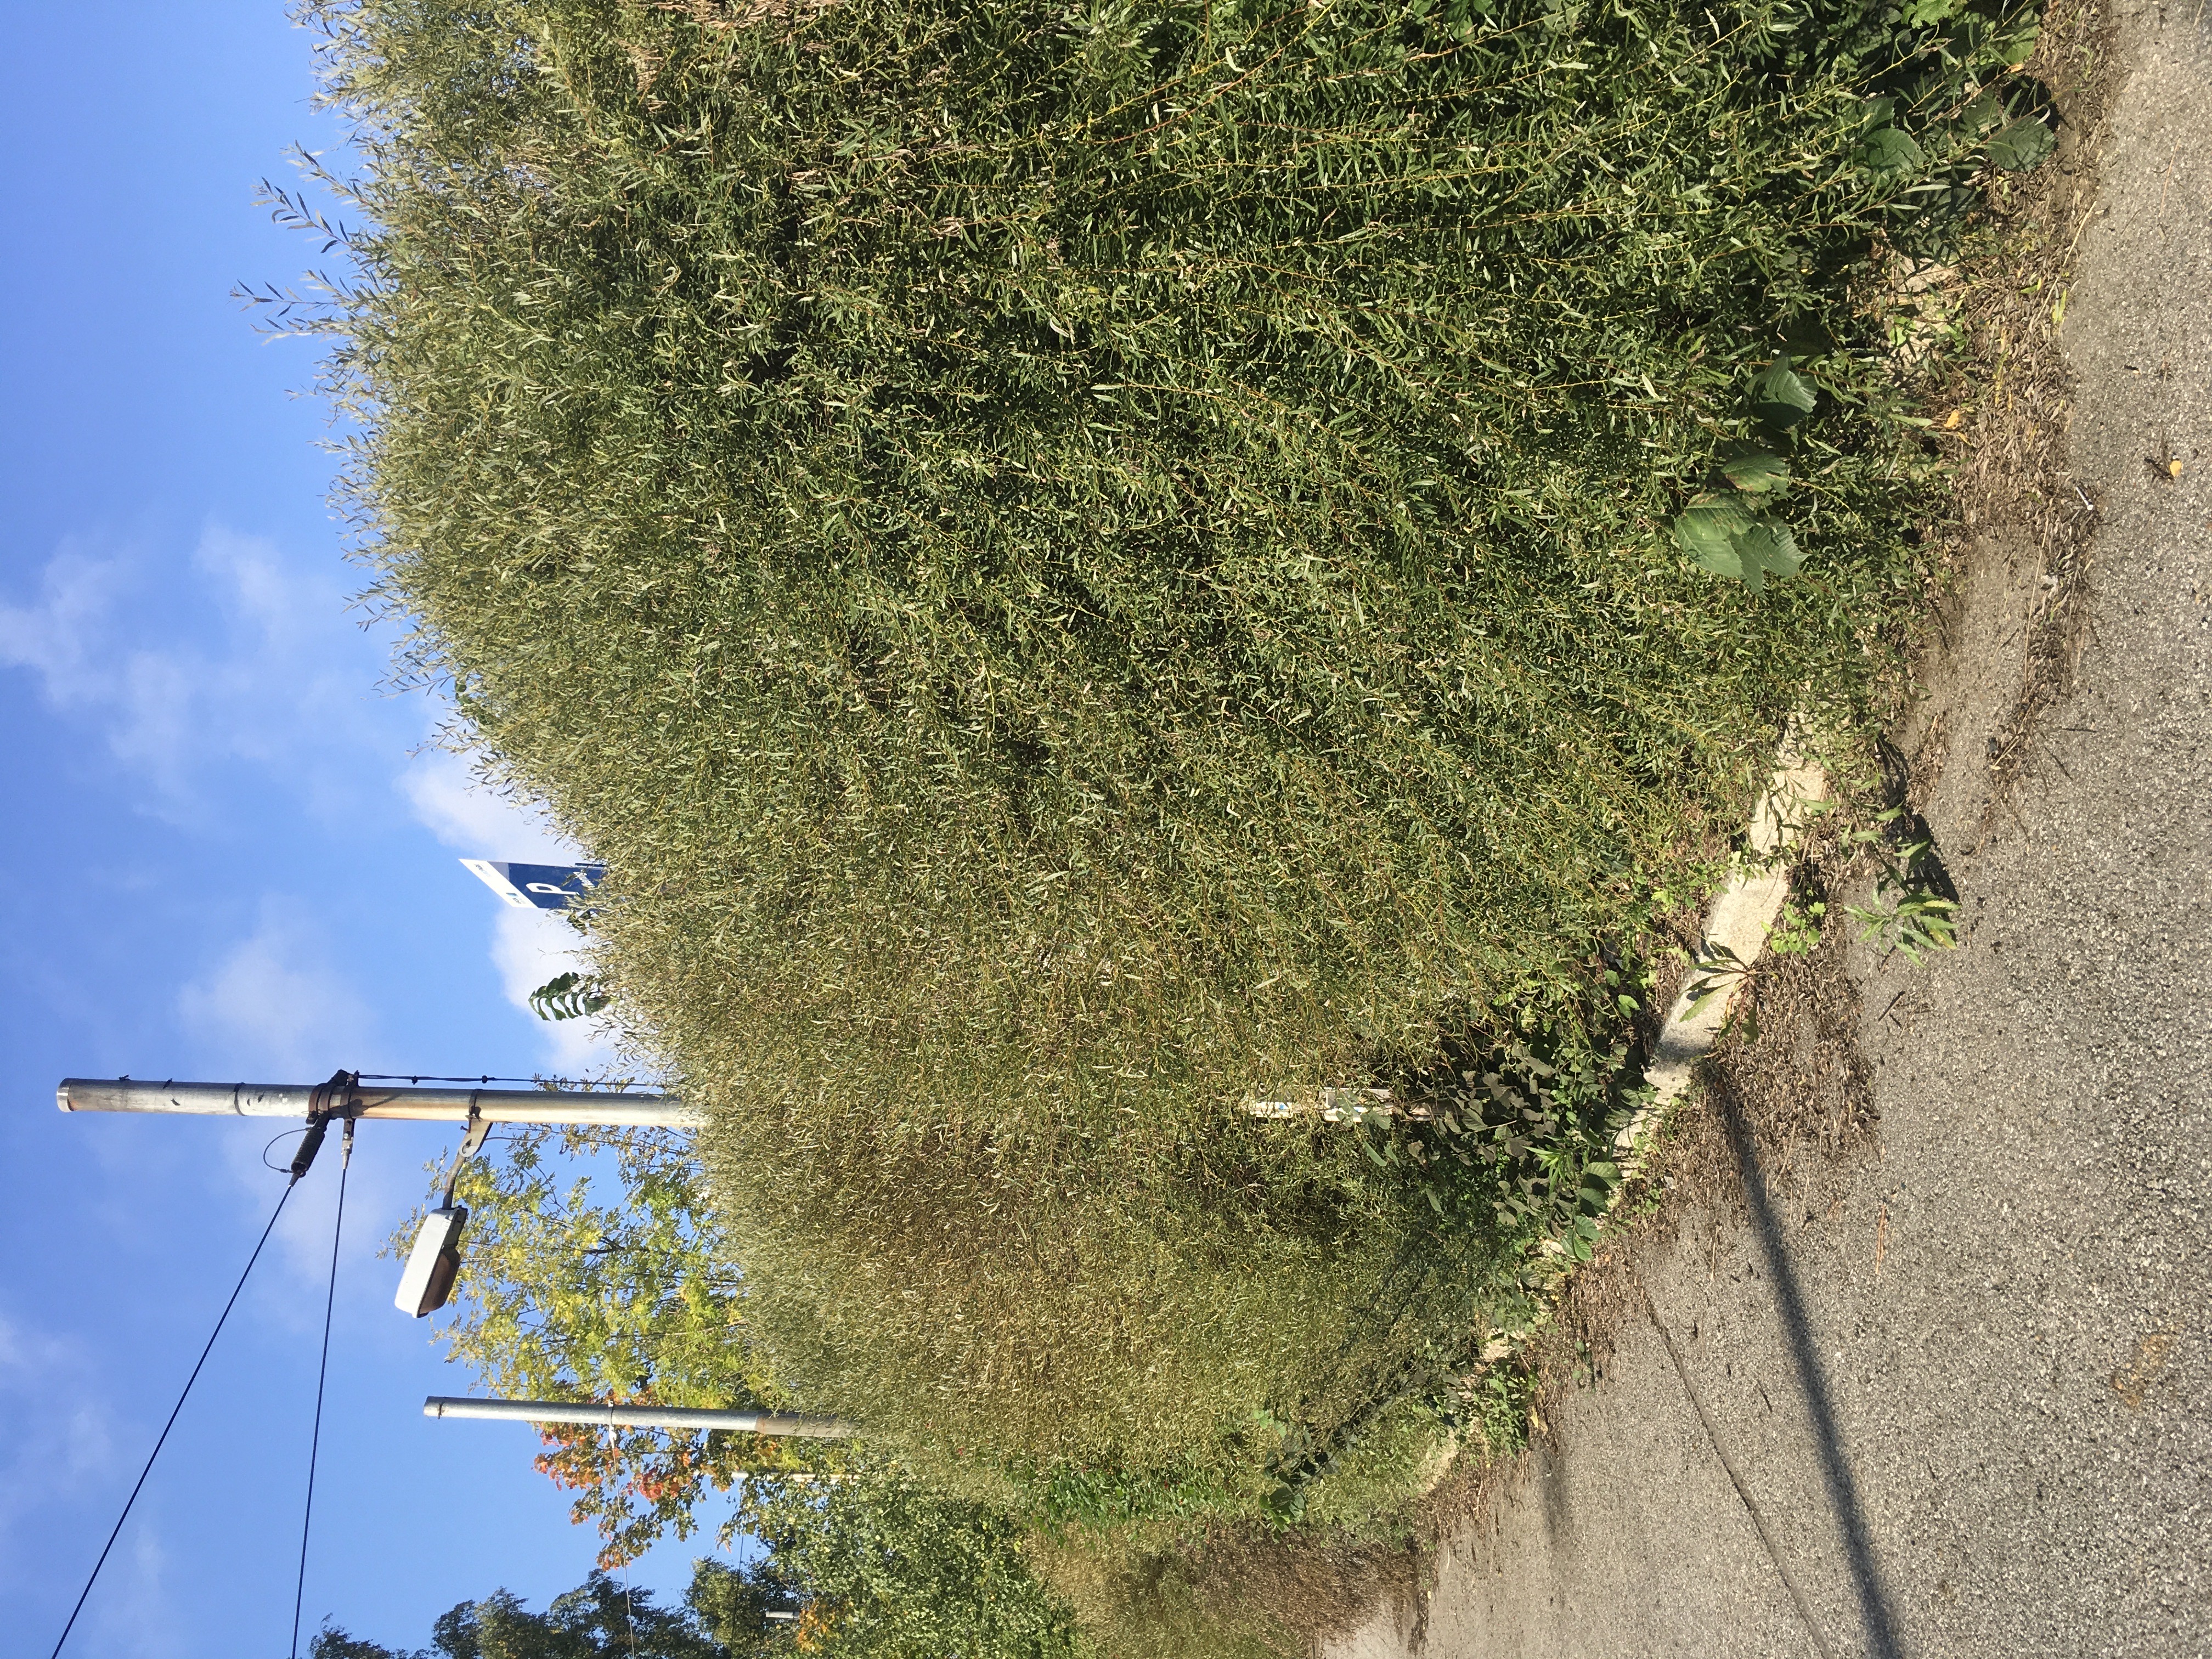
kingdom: Plantae
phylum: Tracheophyta
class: Magnoliopsida
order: Malpighiales
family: Salicaceae
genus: Salix
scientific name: Salix purpurea
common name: rødpil
